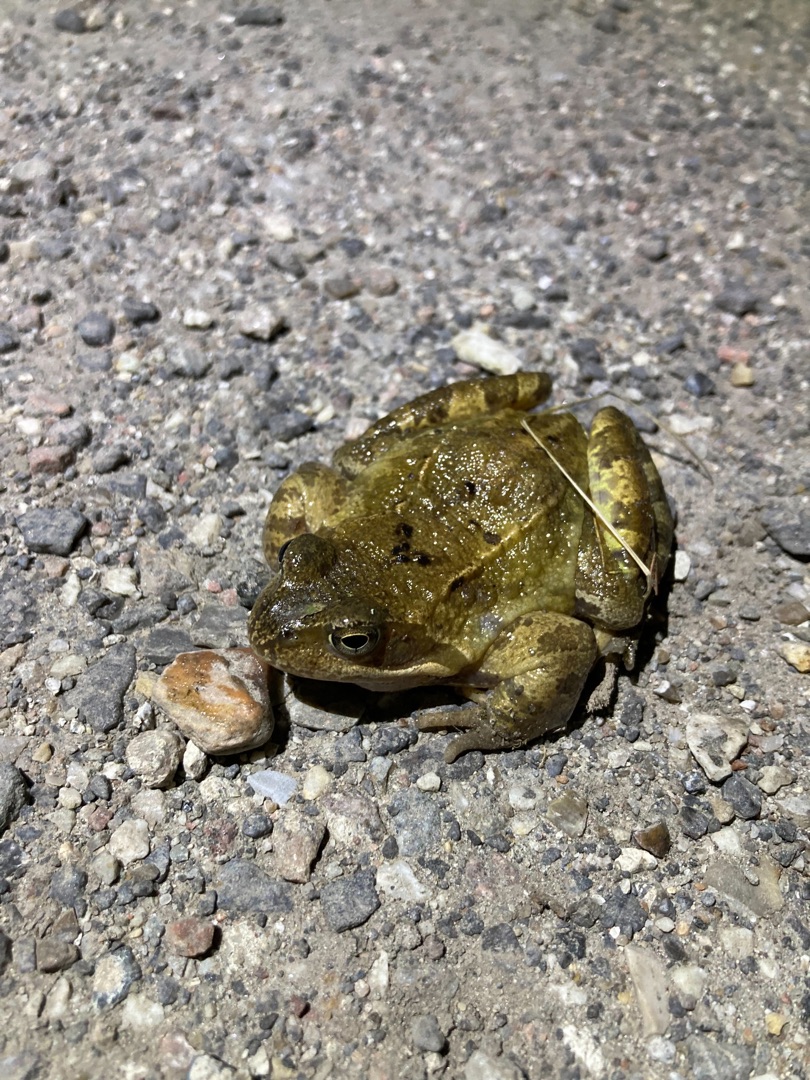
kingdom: Animalia
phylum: Chordata
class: Amphibia
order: Anura
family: Ranidae
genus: Rana
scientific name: Rana temporaria
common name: Butsnudet frø
